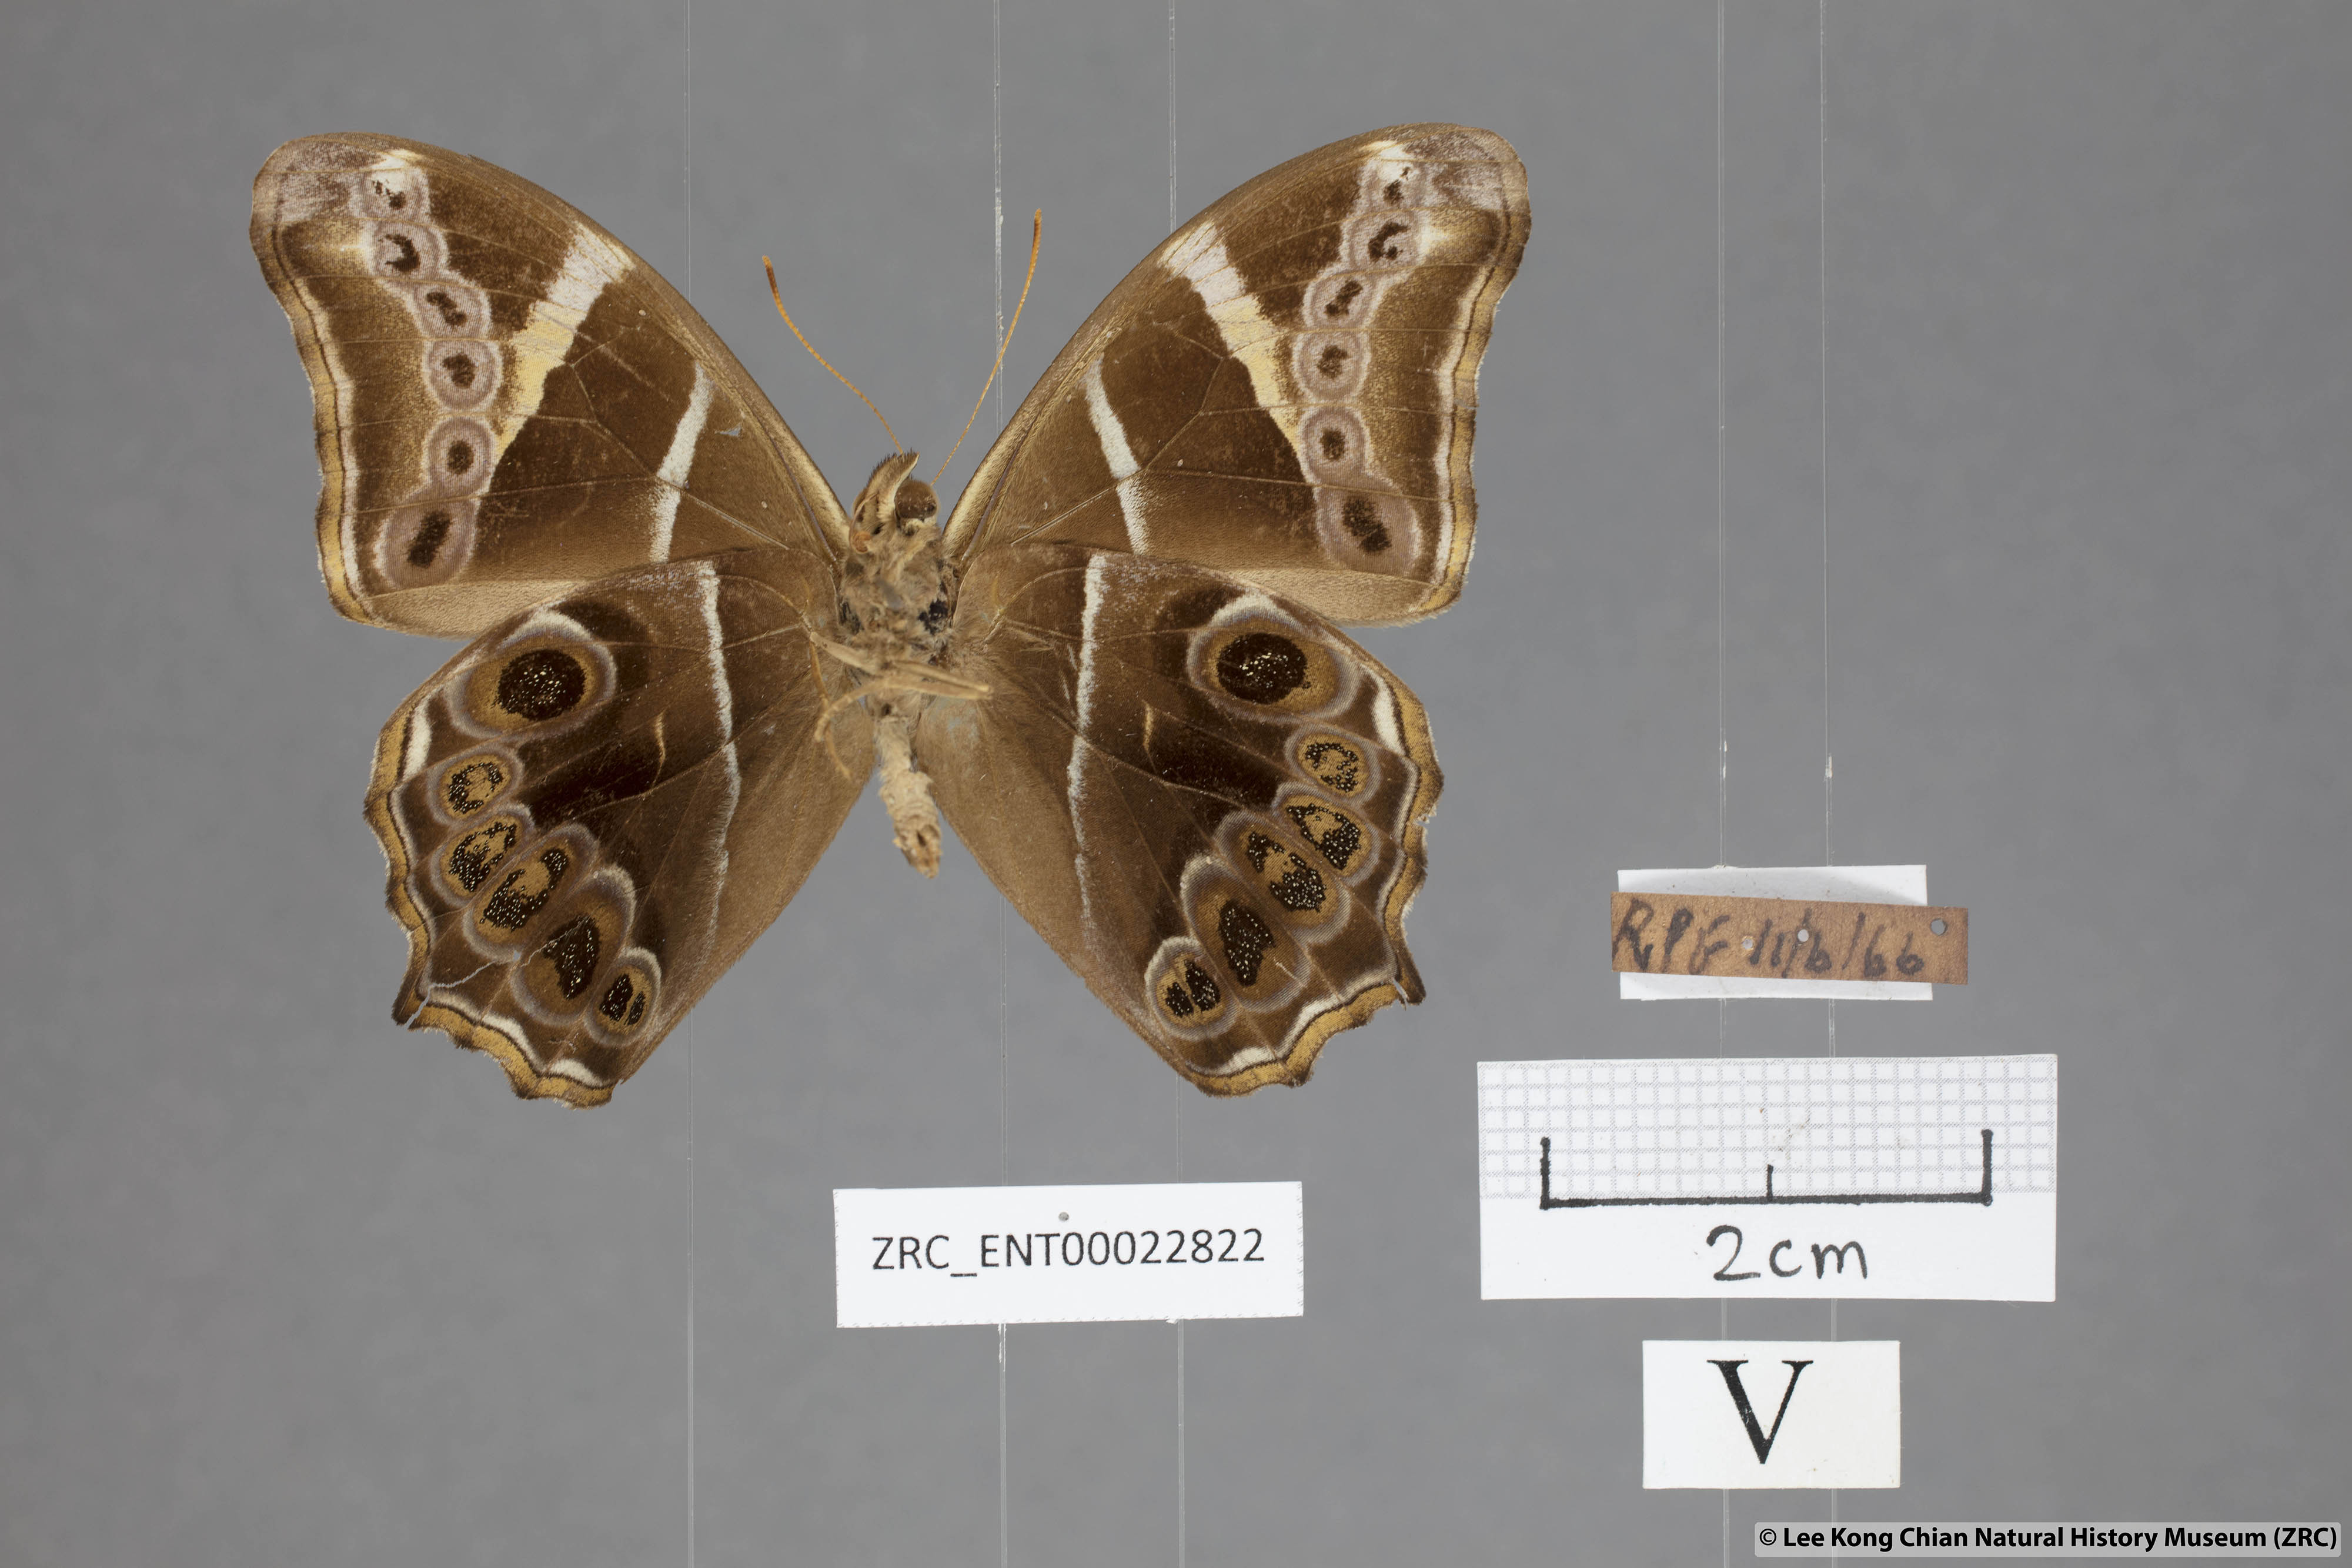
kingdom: Animalia
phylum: Arthropoda
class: Insecta
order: Lepidoptera
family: Nymphalidae
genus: Lethe
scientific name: Lethe europa
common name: Bamboo treebrown
